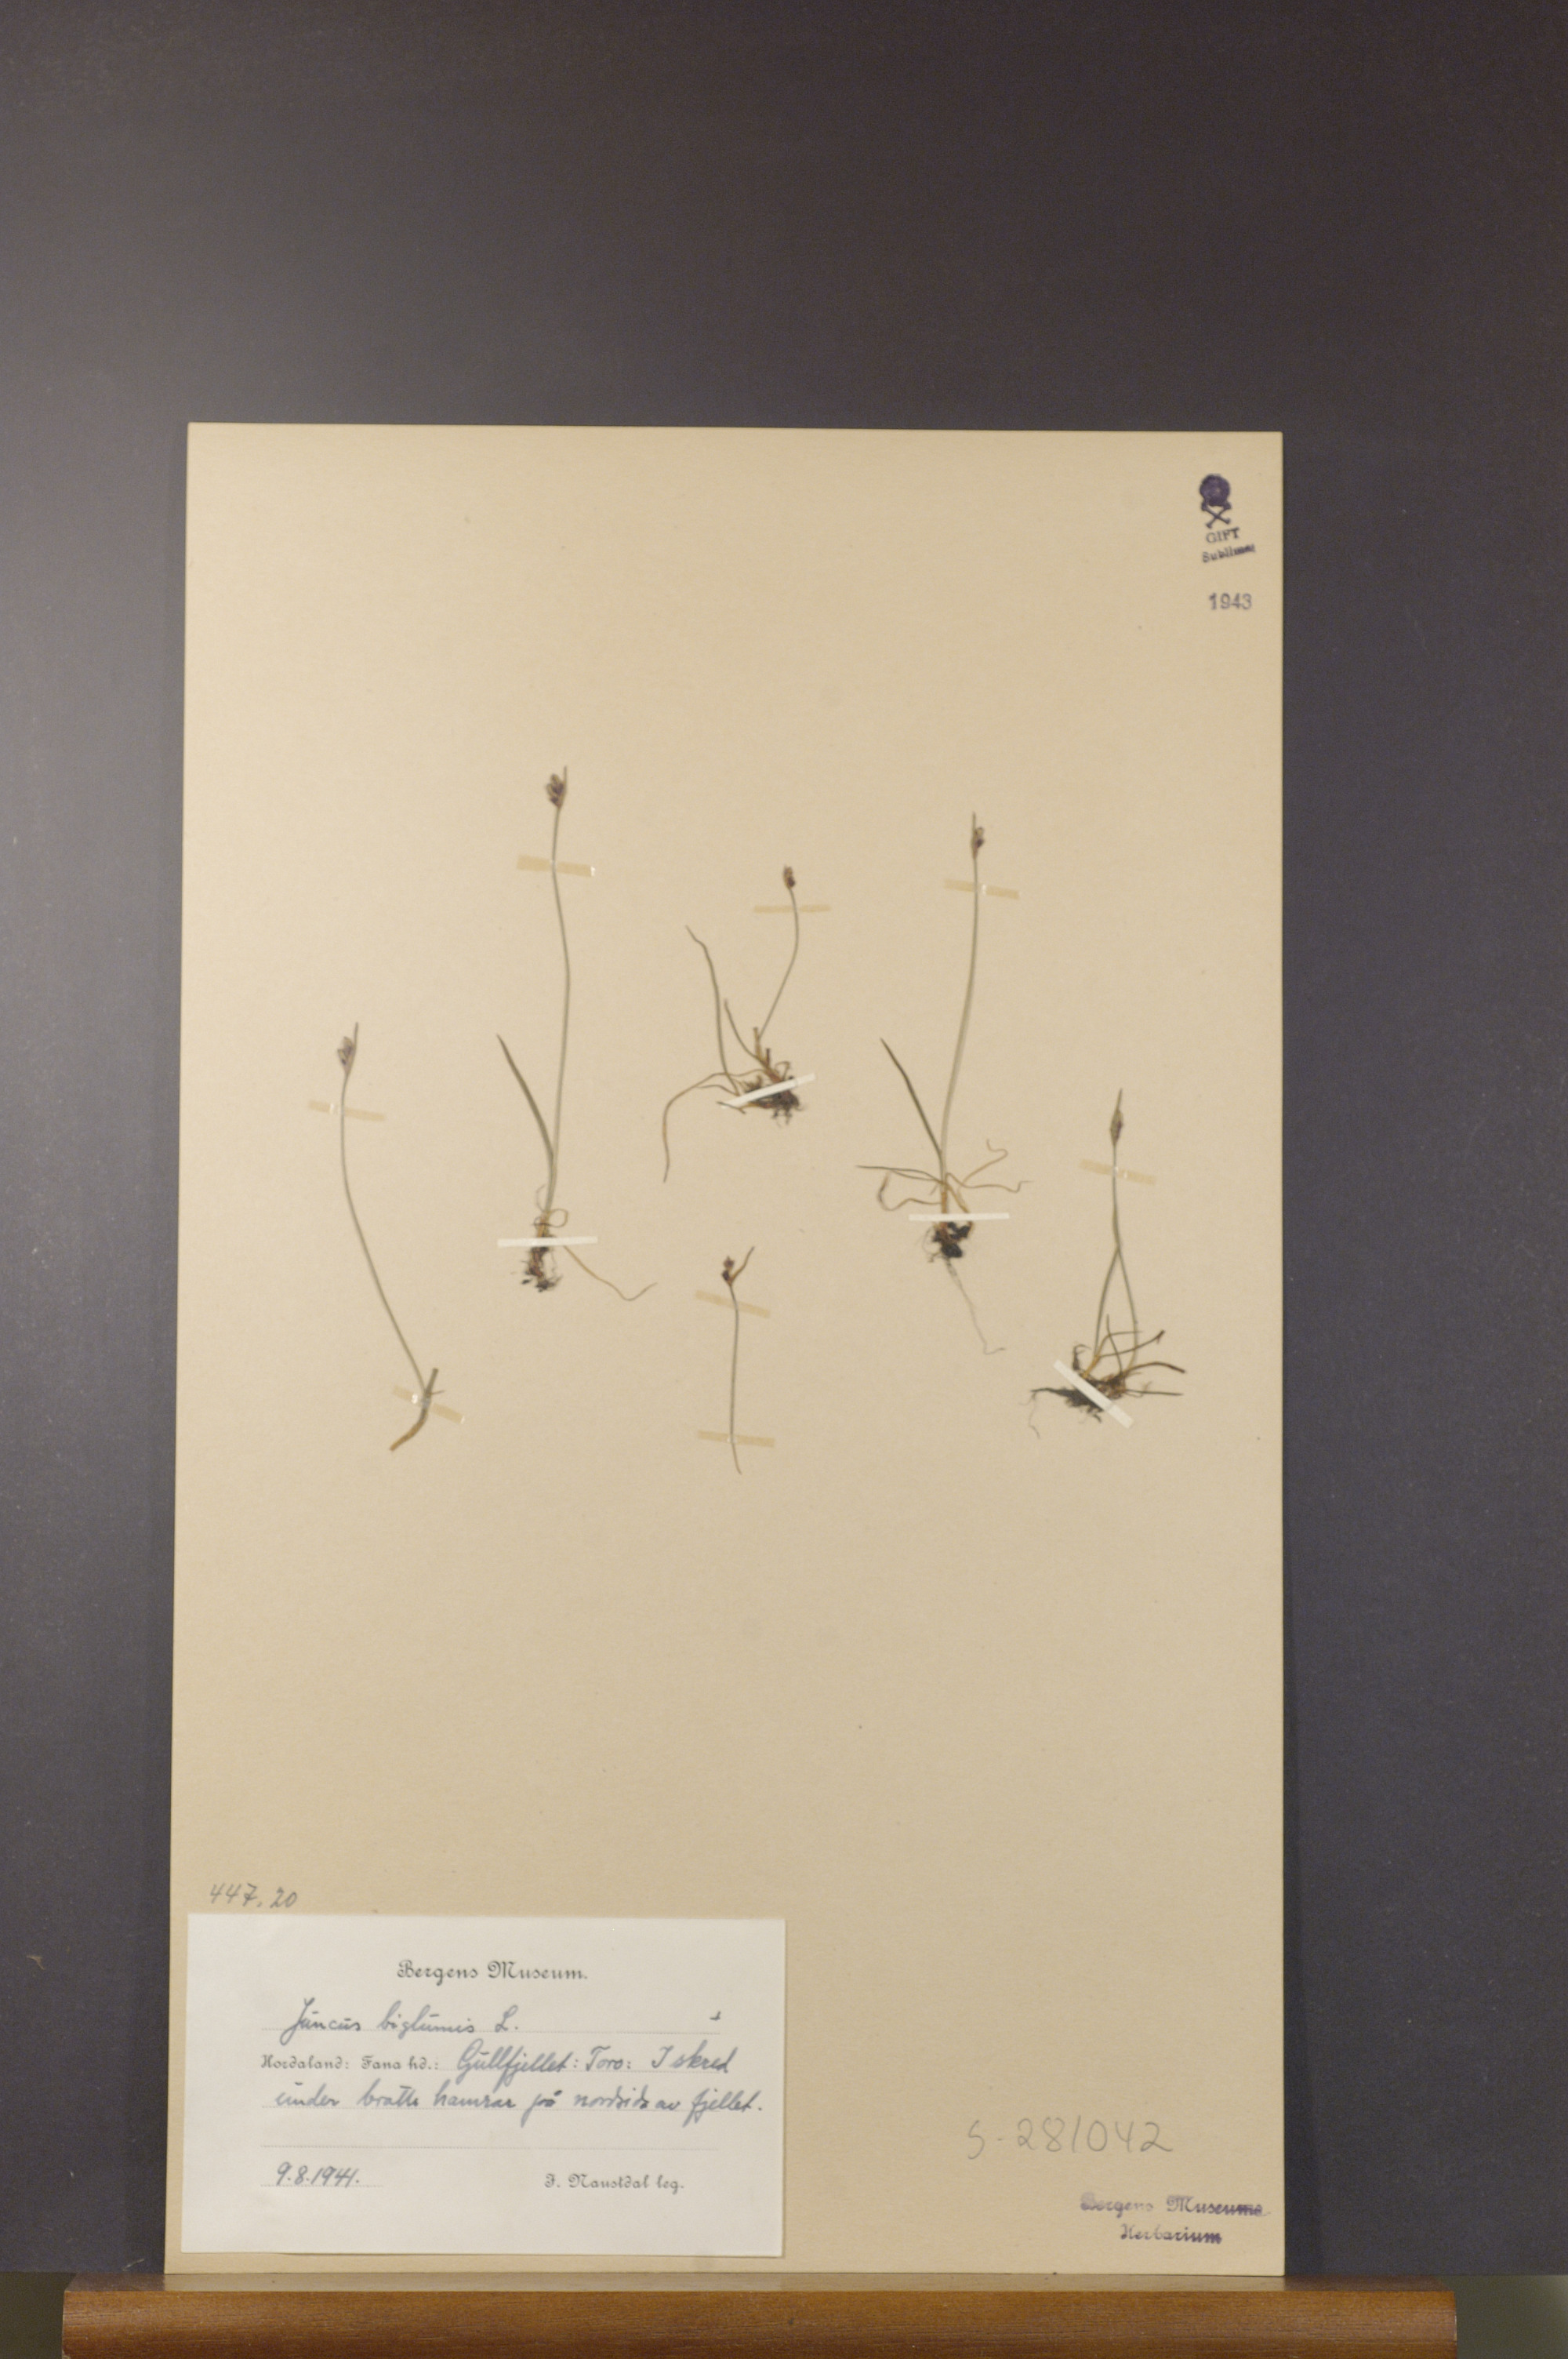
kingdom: Plantae
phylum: Tracheophyta
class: Liliopsida
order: Poales
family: Juncaceae
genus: Juncus
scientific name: Juncus biglumis
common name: Two-flowered rush
